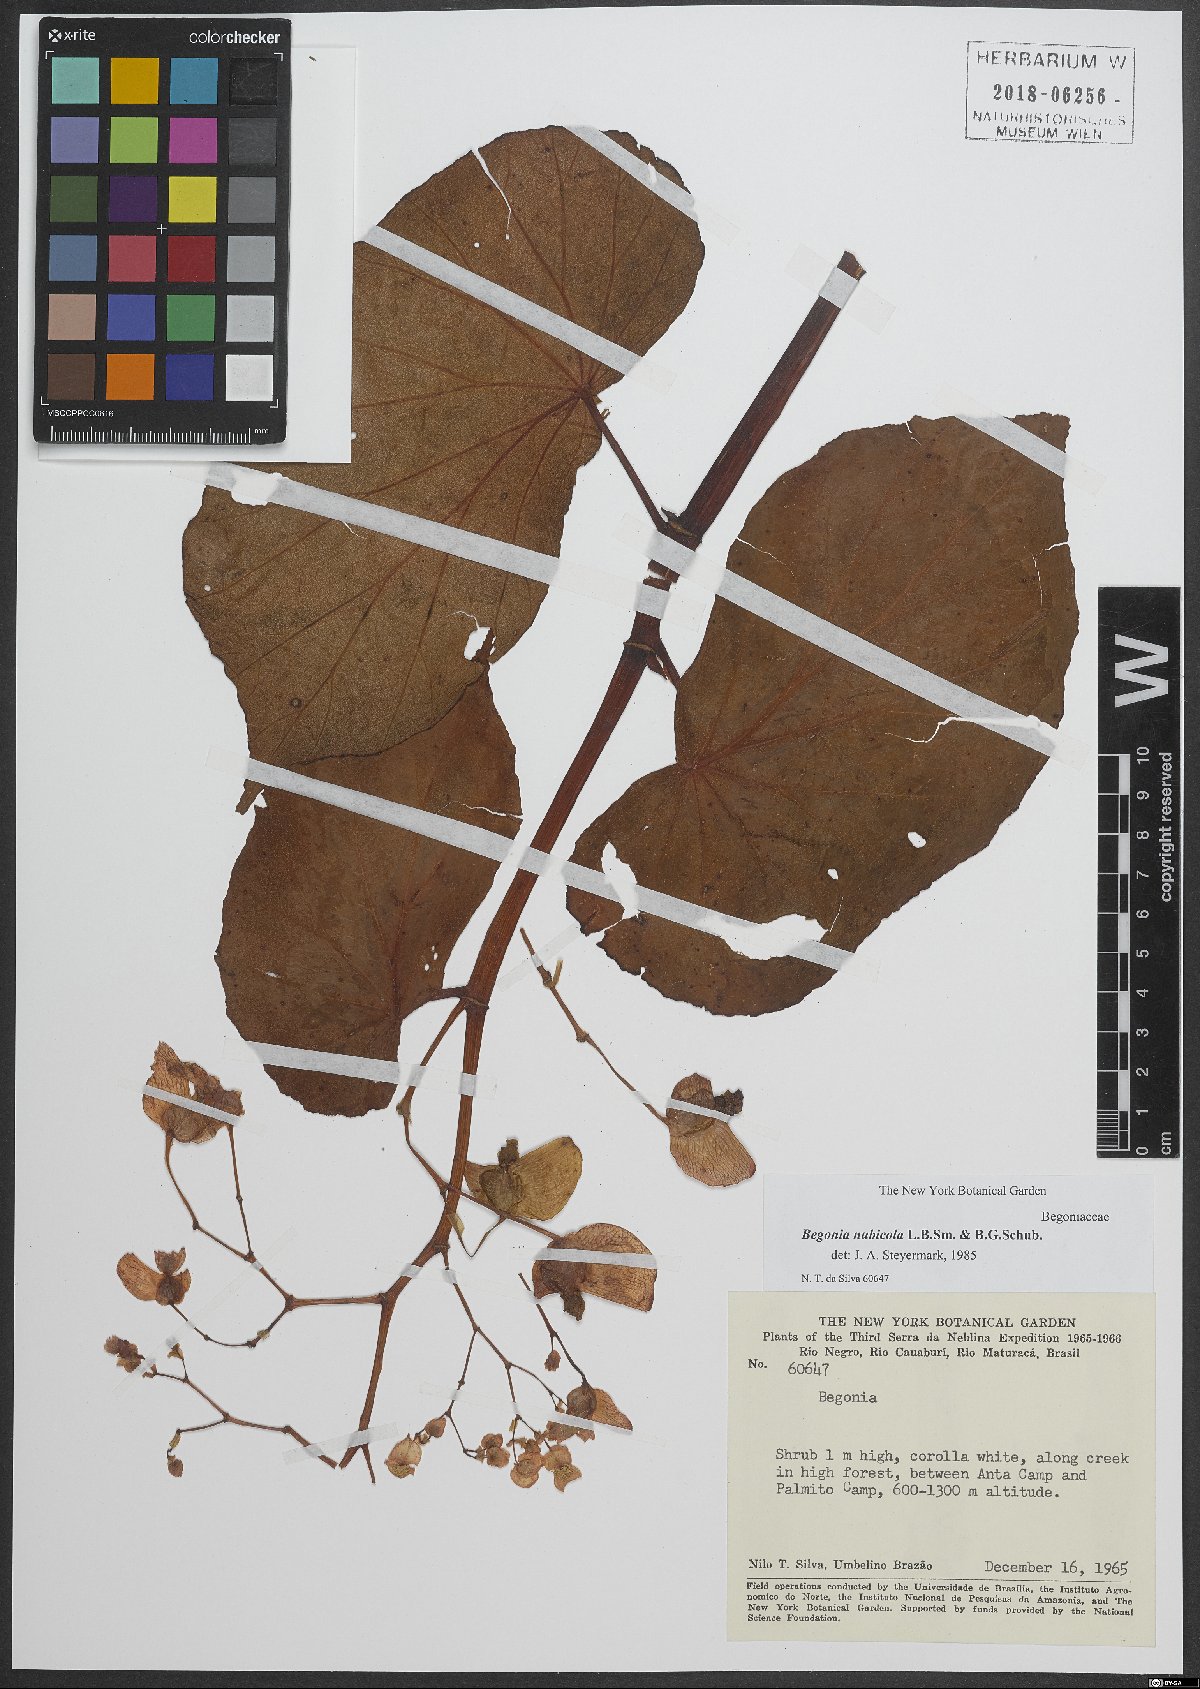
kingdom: Plantae
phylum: Tracheophyta
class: Magnoliopsida
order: Cucurbitales
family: Begoniaceae
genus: Begonia
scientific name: Begonia nubicola
